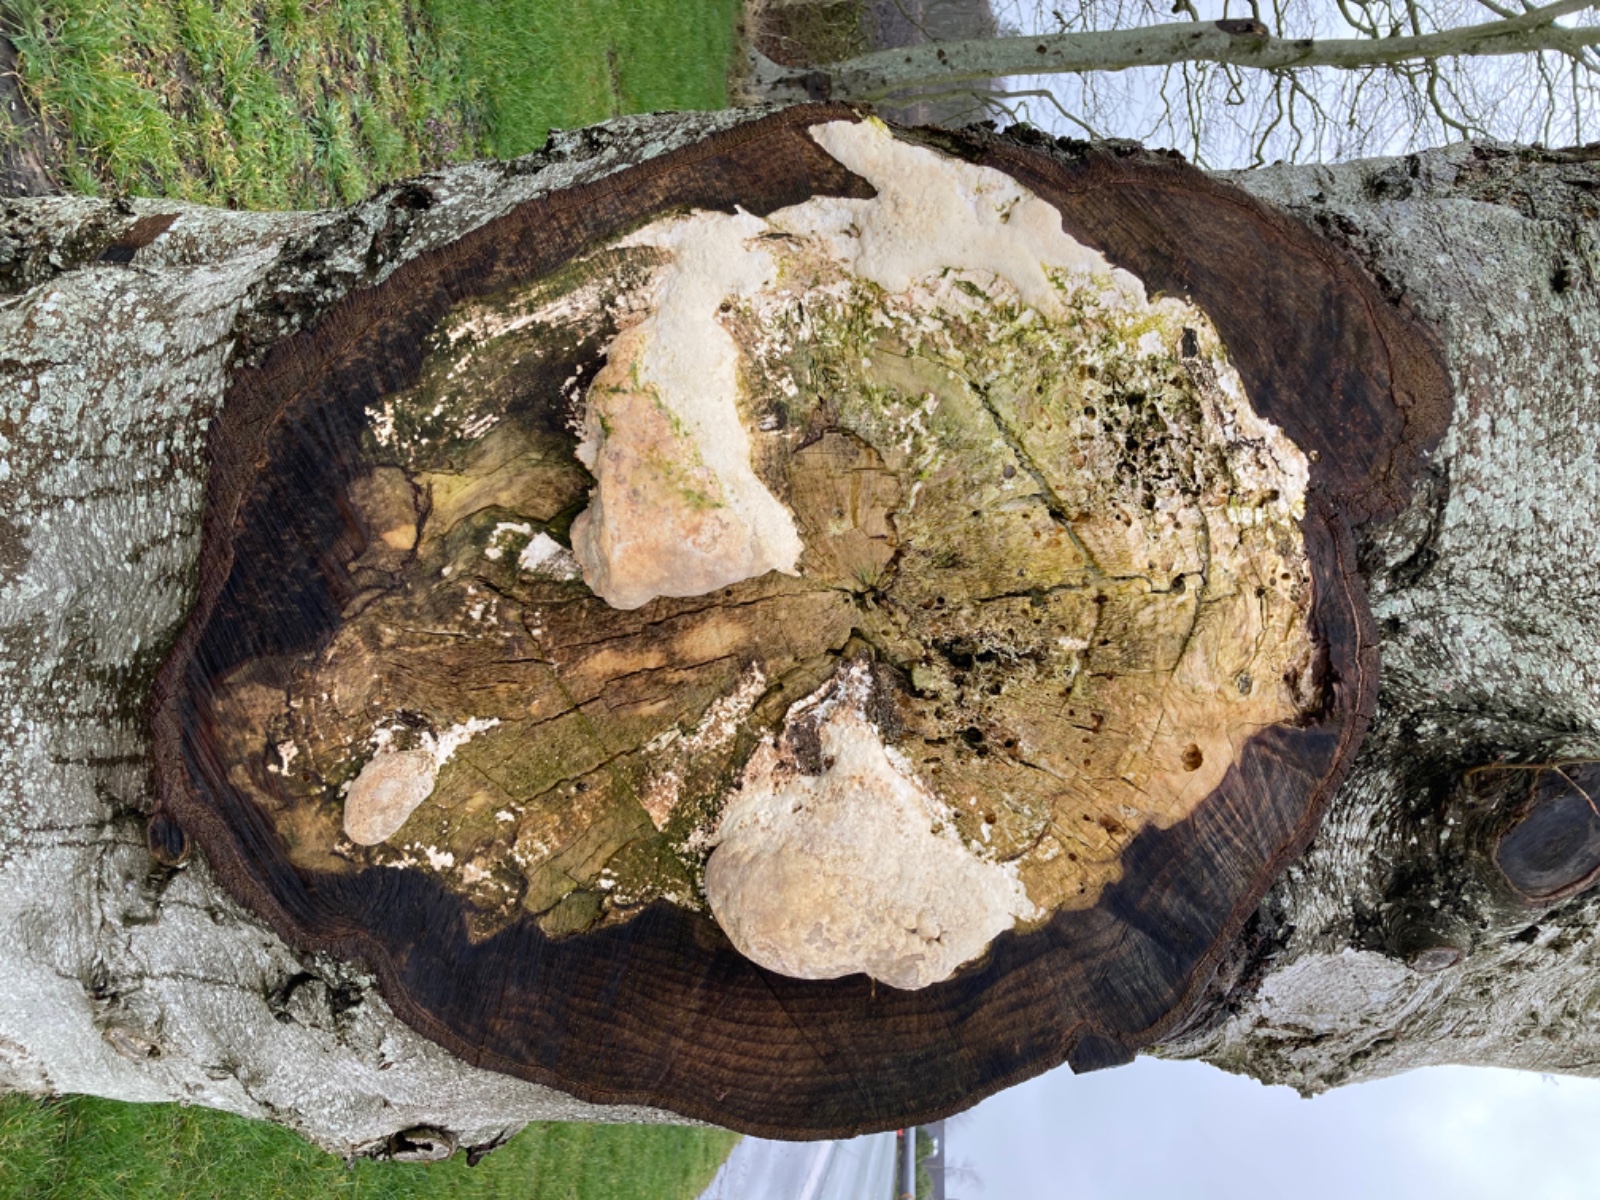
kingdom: Fungi
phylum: Basidiomycota
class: Agaricomycetes
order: Polyporales
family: Polyporaceae
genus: Trametes
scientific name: Trametes gibbosa
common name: puklet læderporesvamp
